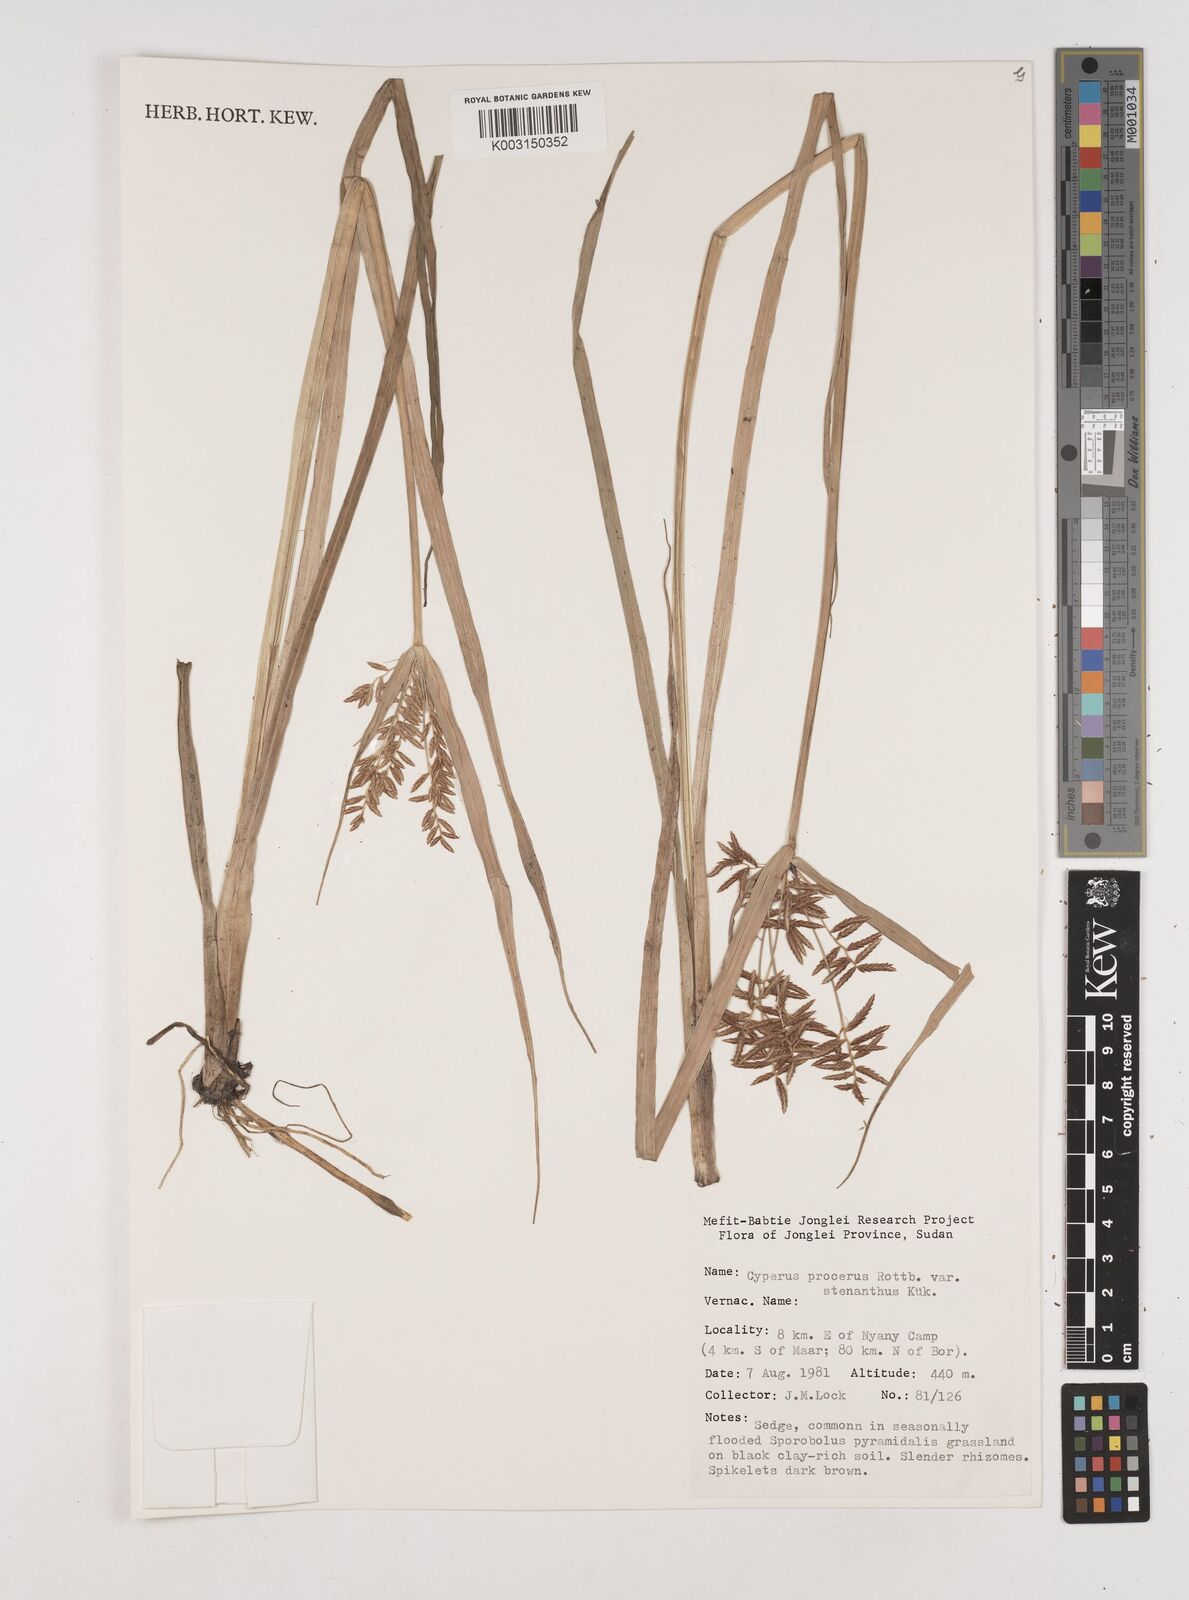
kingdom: Plantae
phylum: Tracheophyta
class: Liliopsida
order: Poales
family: Cyperaceae
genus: Cyperus
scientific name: Cyperus distans
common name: Slender cyperus
